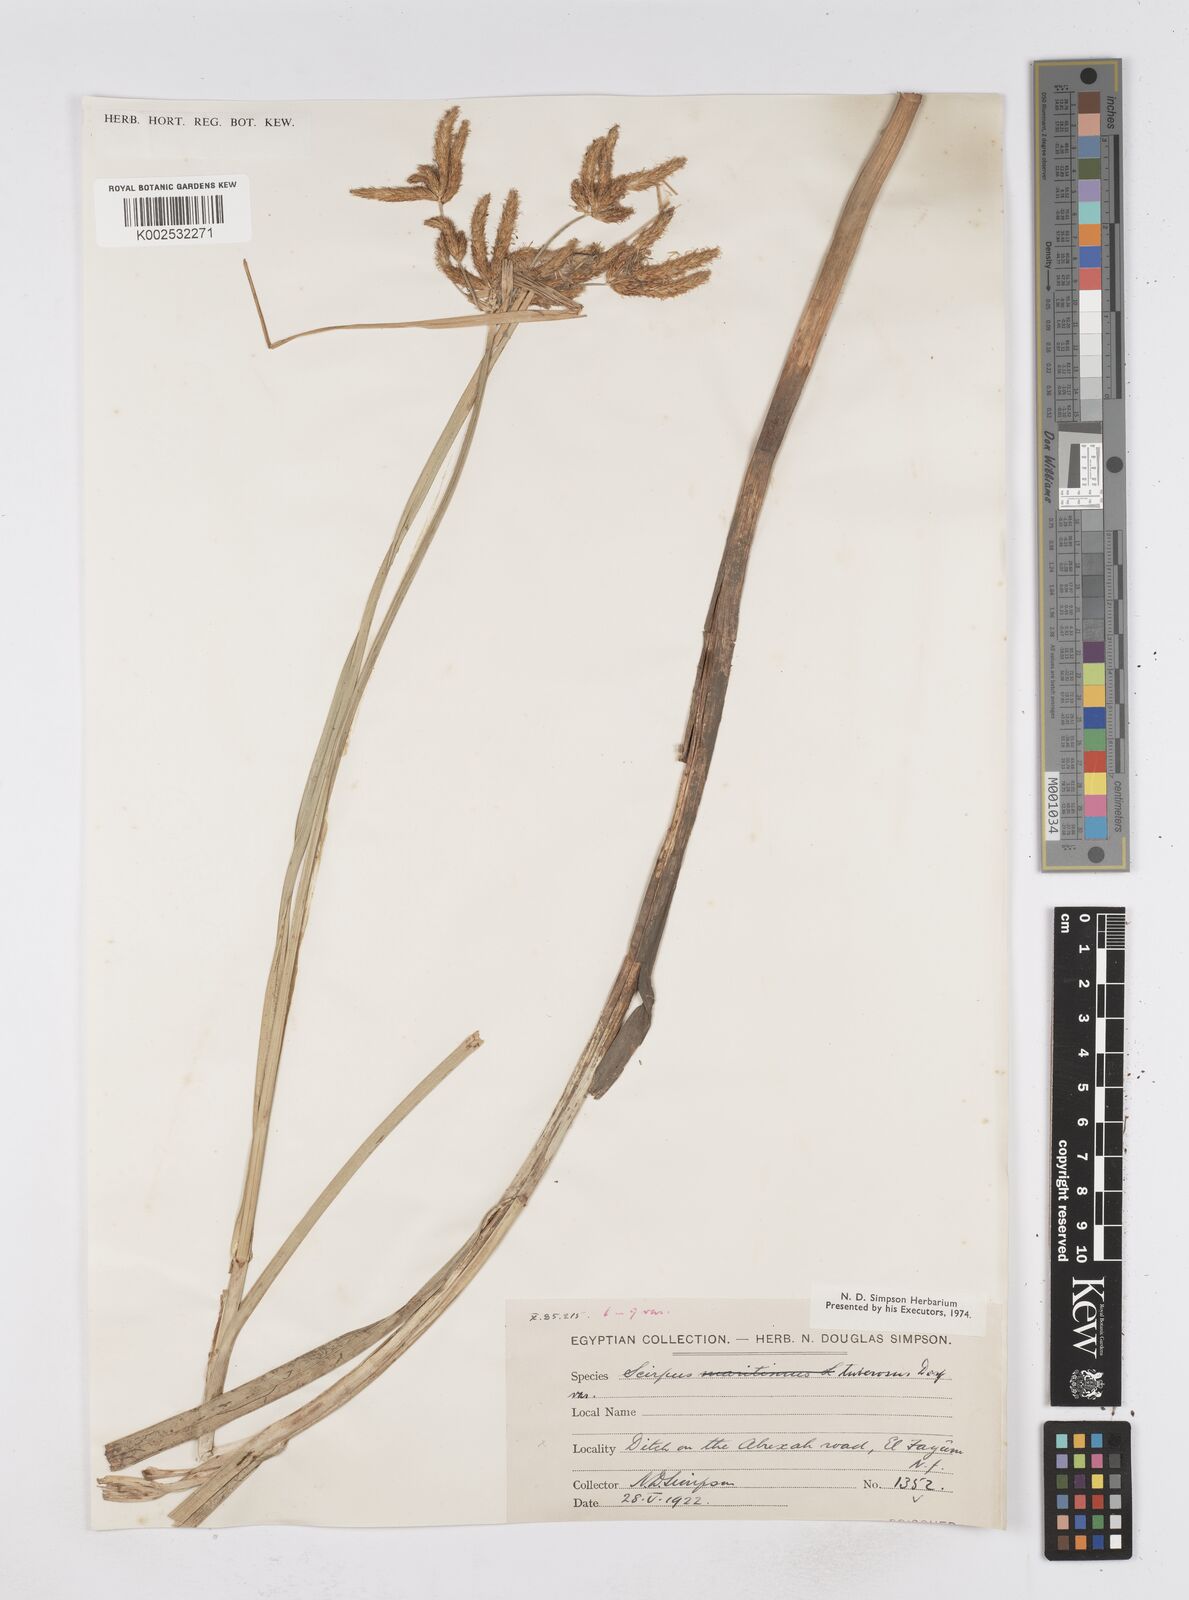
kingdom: Plantae
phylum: Tracheophyta
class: Liliopsida
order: Poales
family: Cyperaceae
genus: Bolboschoenus
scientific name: Bolboschoenus maritimus
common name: Sea club-rush
